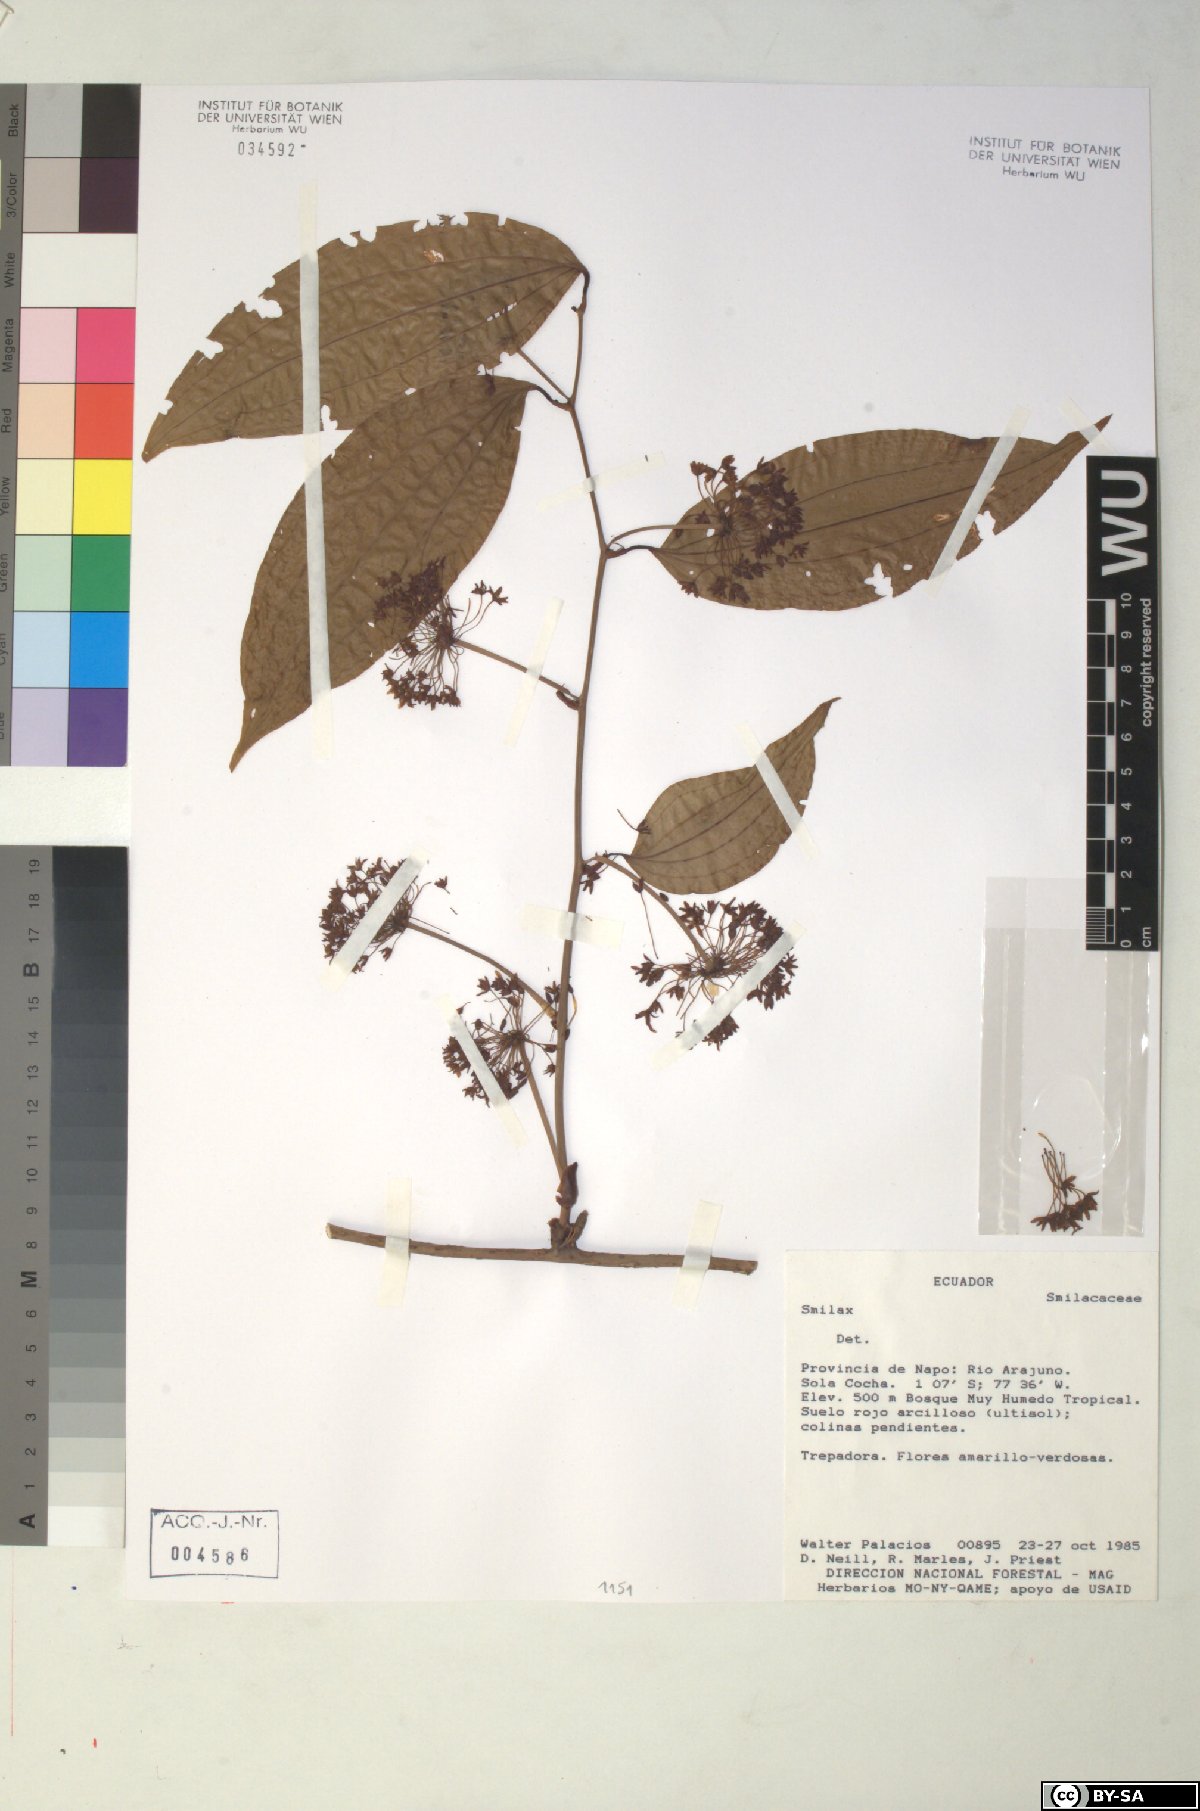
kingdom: Plantae
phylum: Tracheophyta
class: Liliopsida
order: Liliales
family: Smilacaceae
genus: Smilax
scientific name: Smilax
